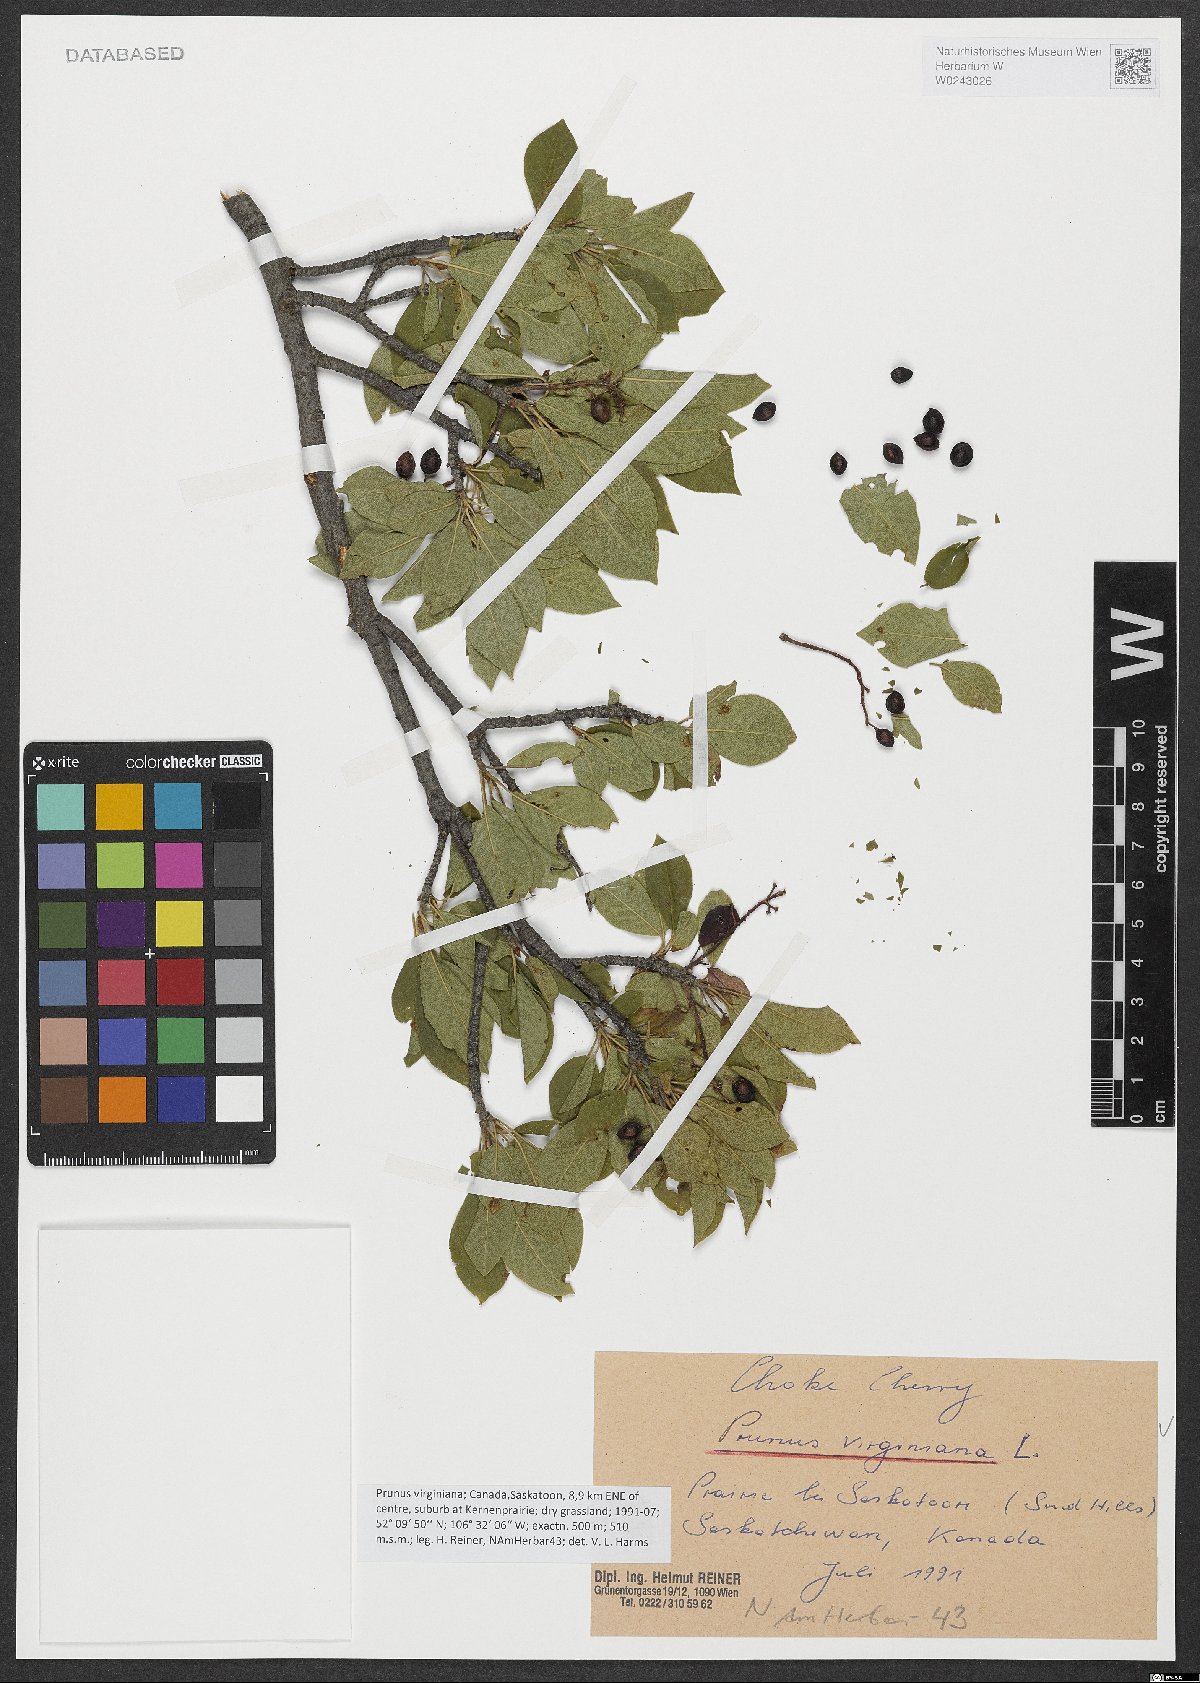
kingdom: Plantae
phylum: Tracheophyta
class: Magnoliopsida
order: Rosales
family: Rosaceae
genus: Prunus
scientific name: Prunus virginiana
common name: Chokecherry
